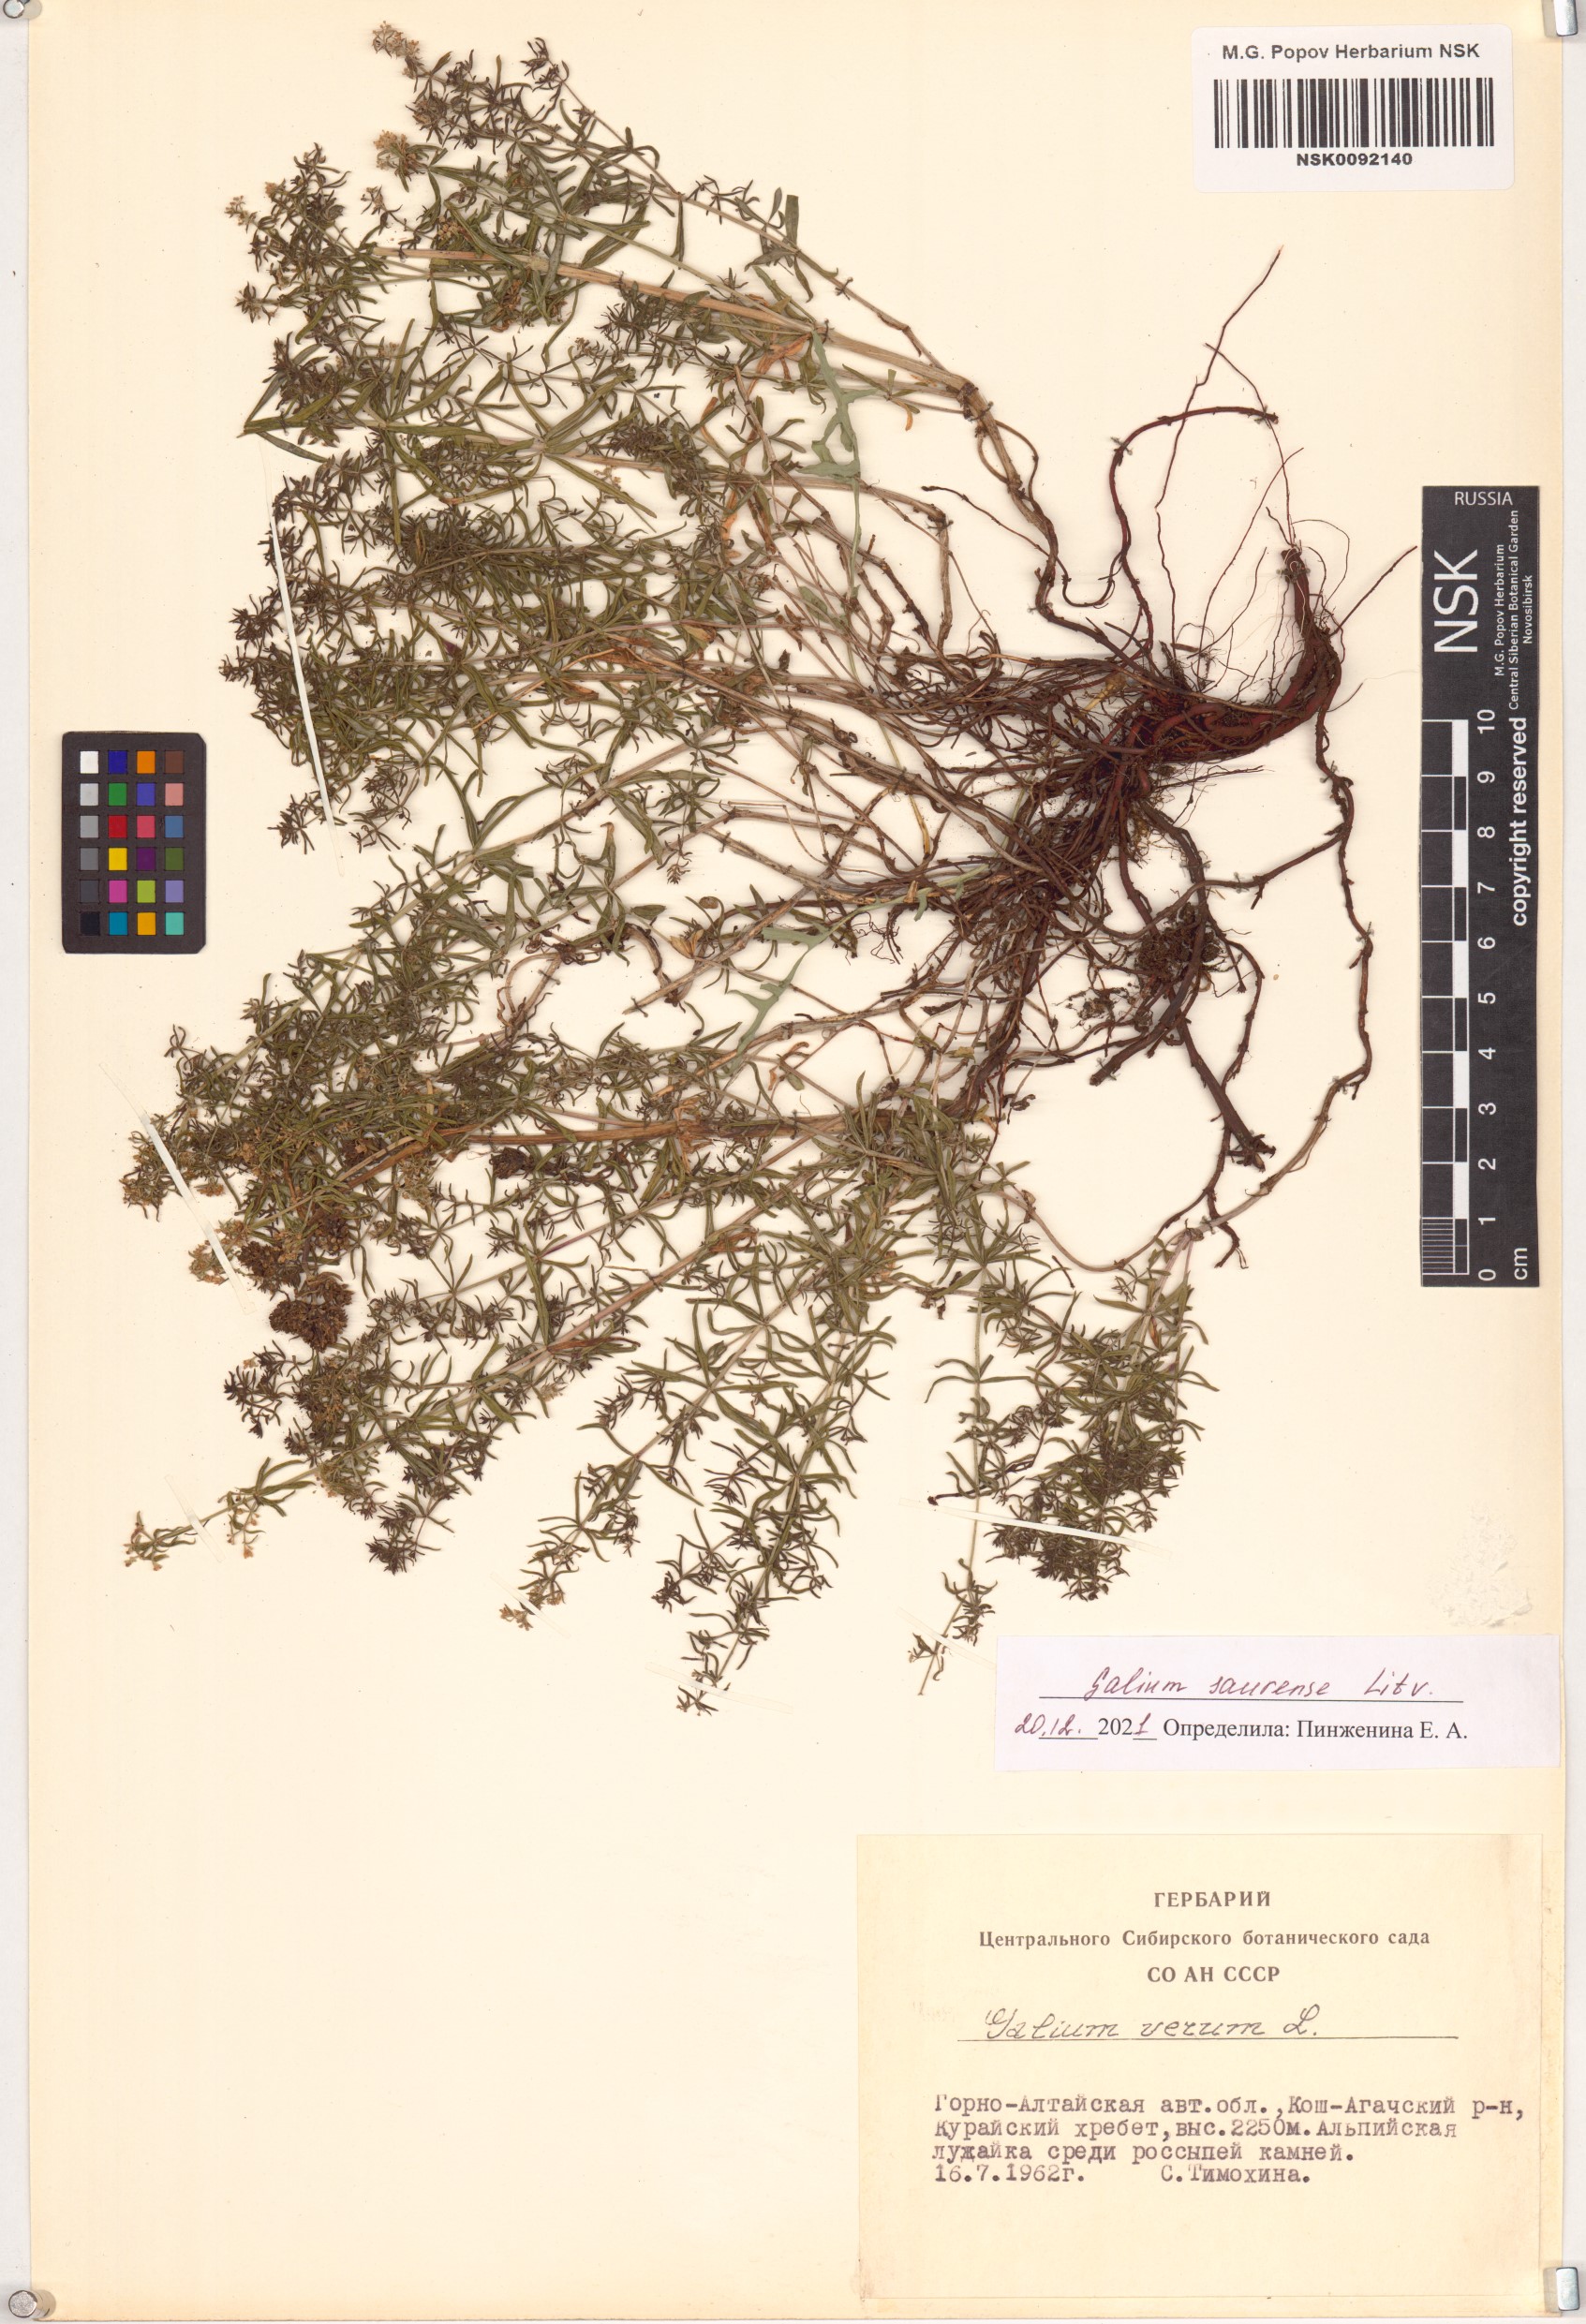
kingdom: Plantae
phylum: Tracheophyta
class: Magnoliopsida
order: Gentianales
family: Rubiaceae
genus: Galium
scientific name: Galium saurense
